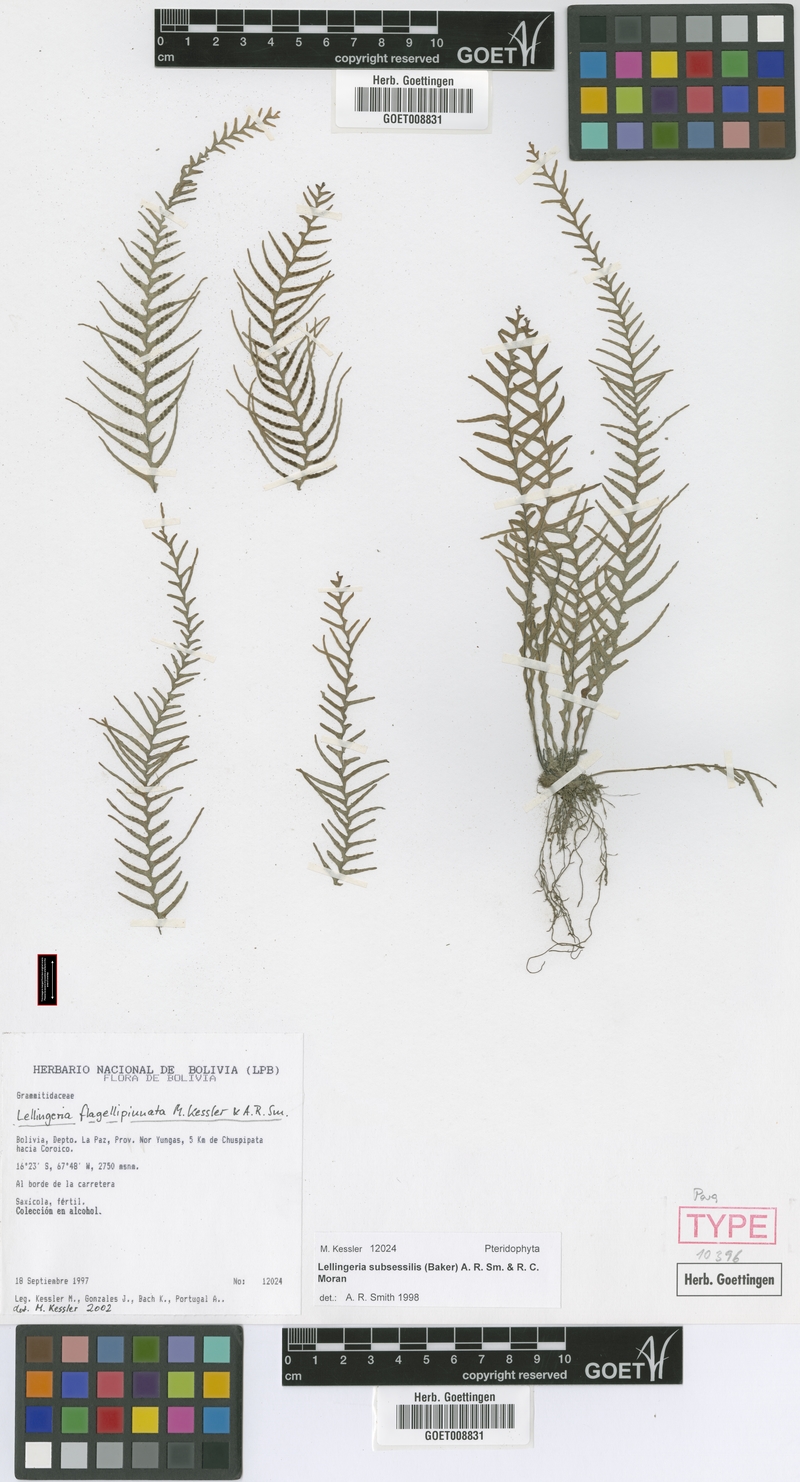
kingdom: Plantae
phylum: Tracheophyta
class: Polypodiopsida
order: Polypodiales
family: Polypodiaceae
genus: Lellingeria
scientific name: Lellingeria flagellipinnata
